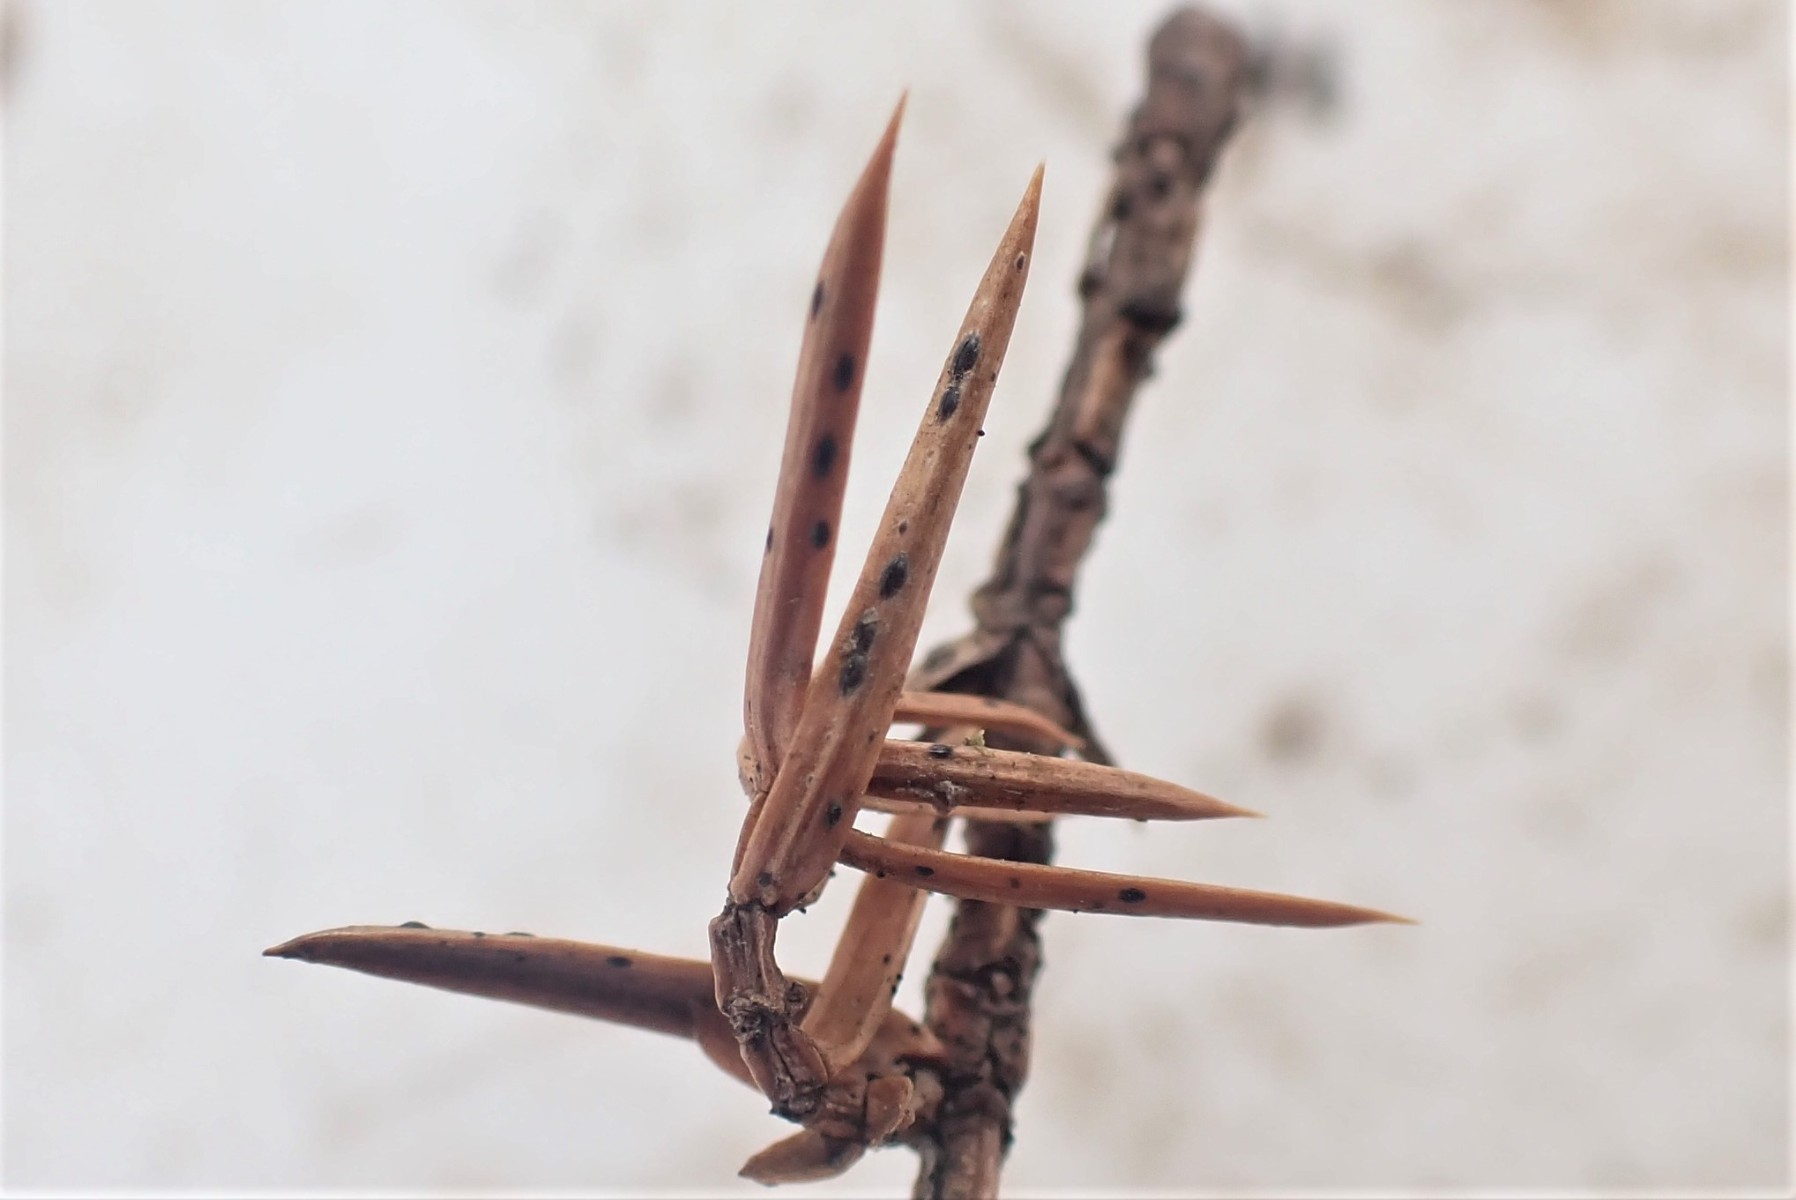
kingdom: Fungi
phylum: Ascomycota
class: Leotiomycetes
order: Rhytismatales
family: Rhytismataceae
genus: Lophodermium
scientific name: Lophodermium juniperinum
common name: ene-fureplet
